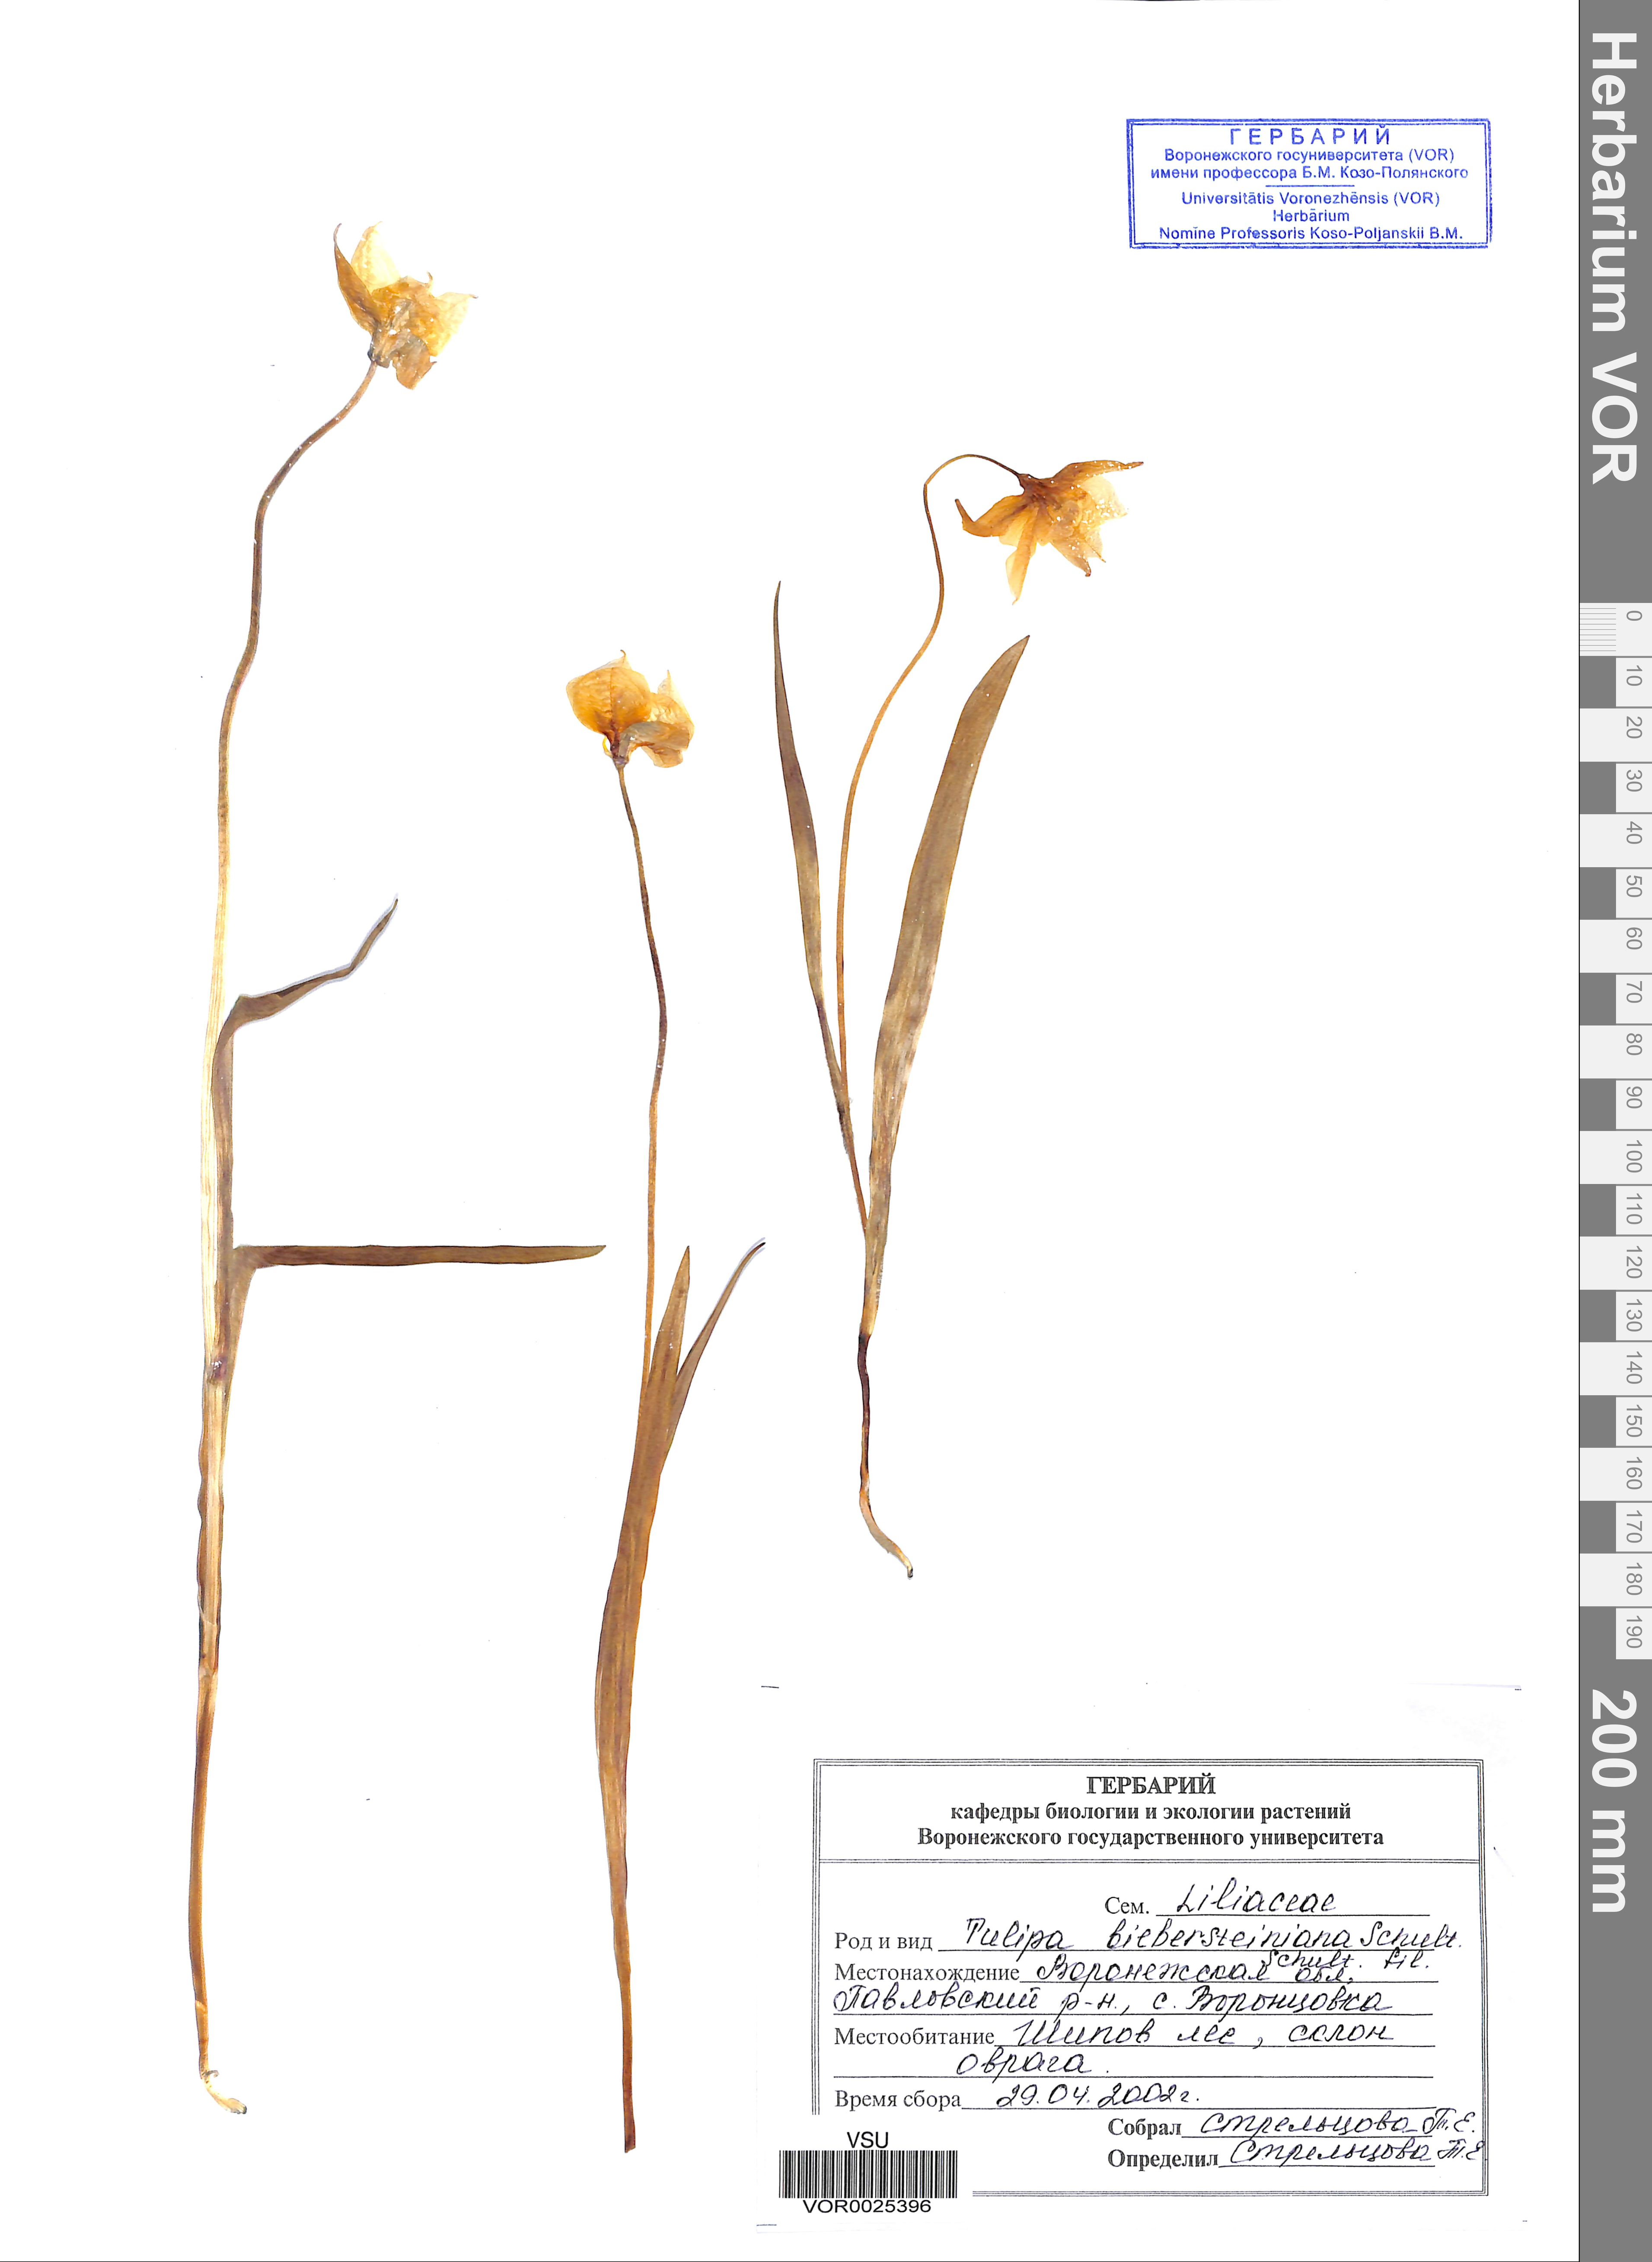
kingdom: Plantae
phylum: Tracheophyta
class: Liliopsida
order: Liliales
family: Liliaceae
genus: Tulipa
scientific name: Tulipa sylvestris
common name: Wild tulip
